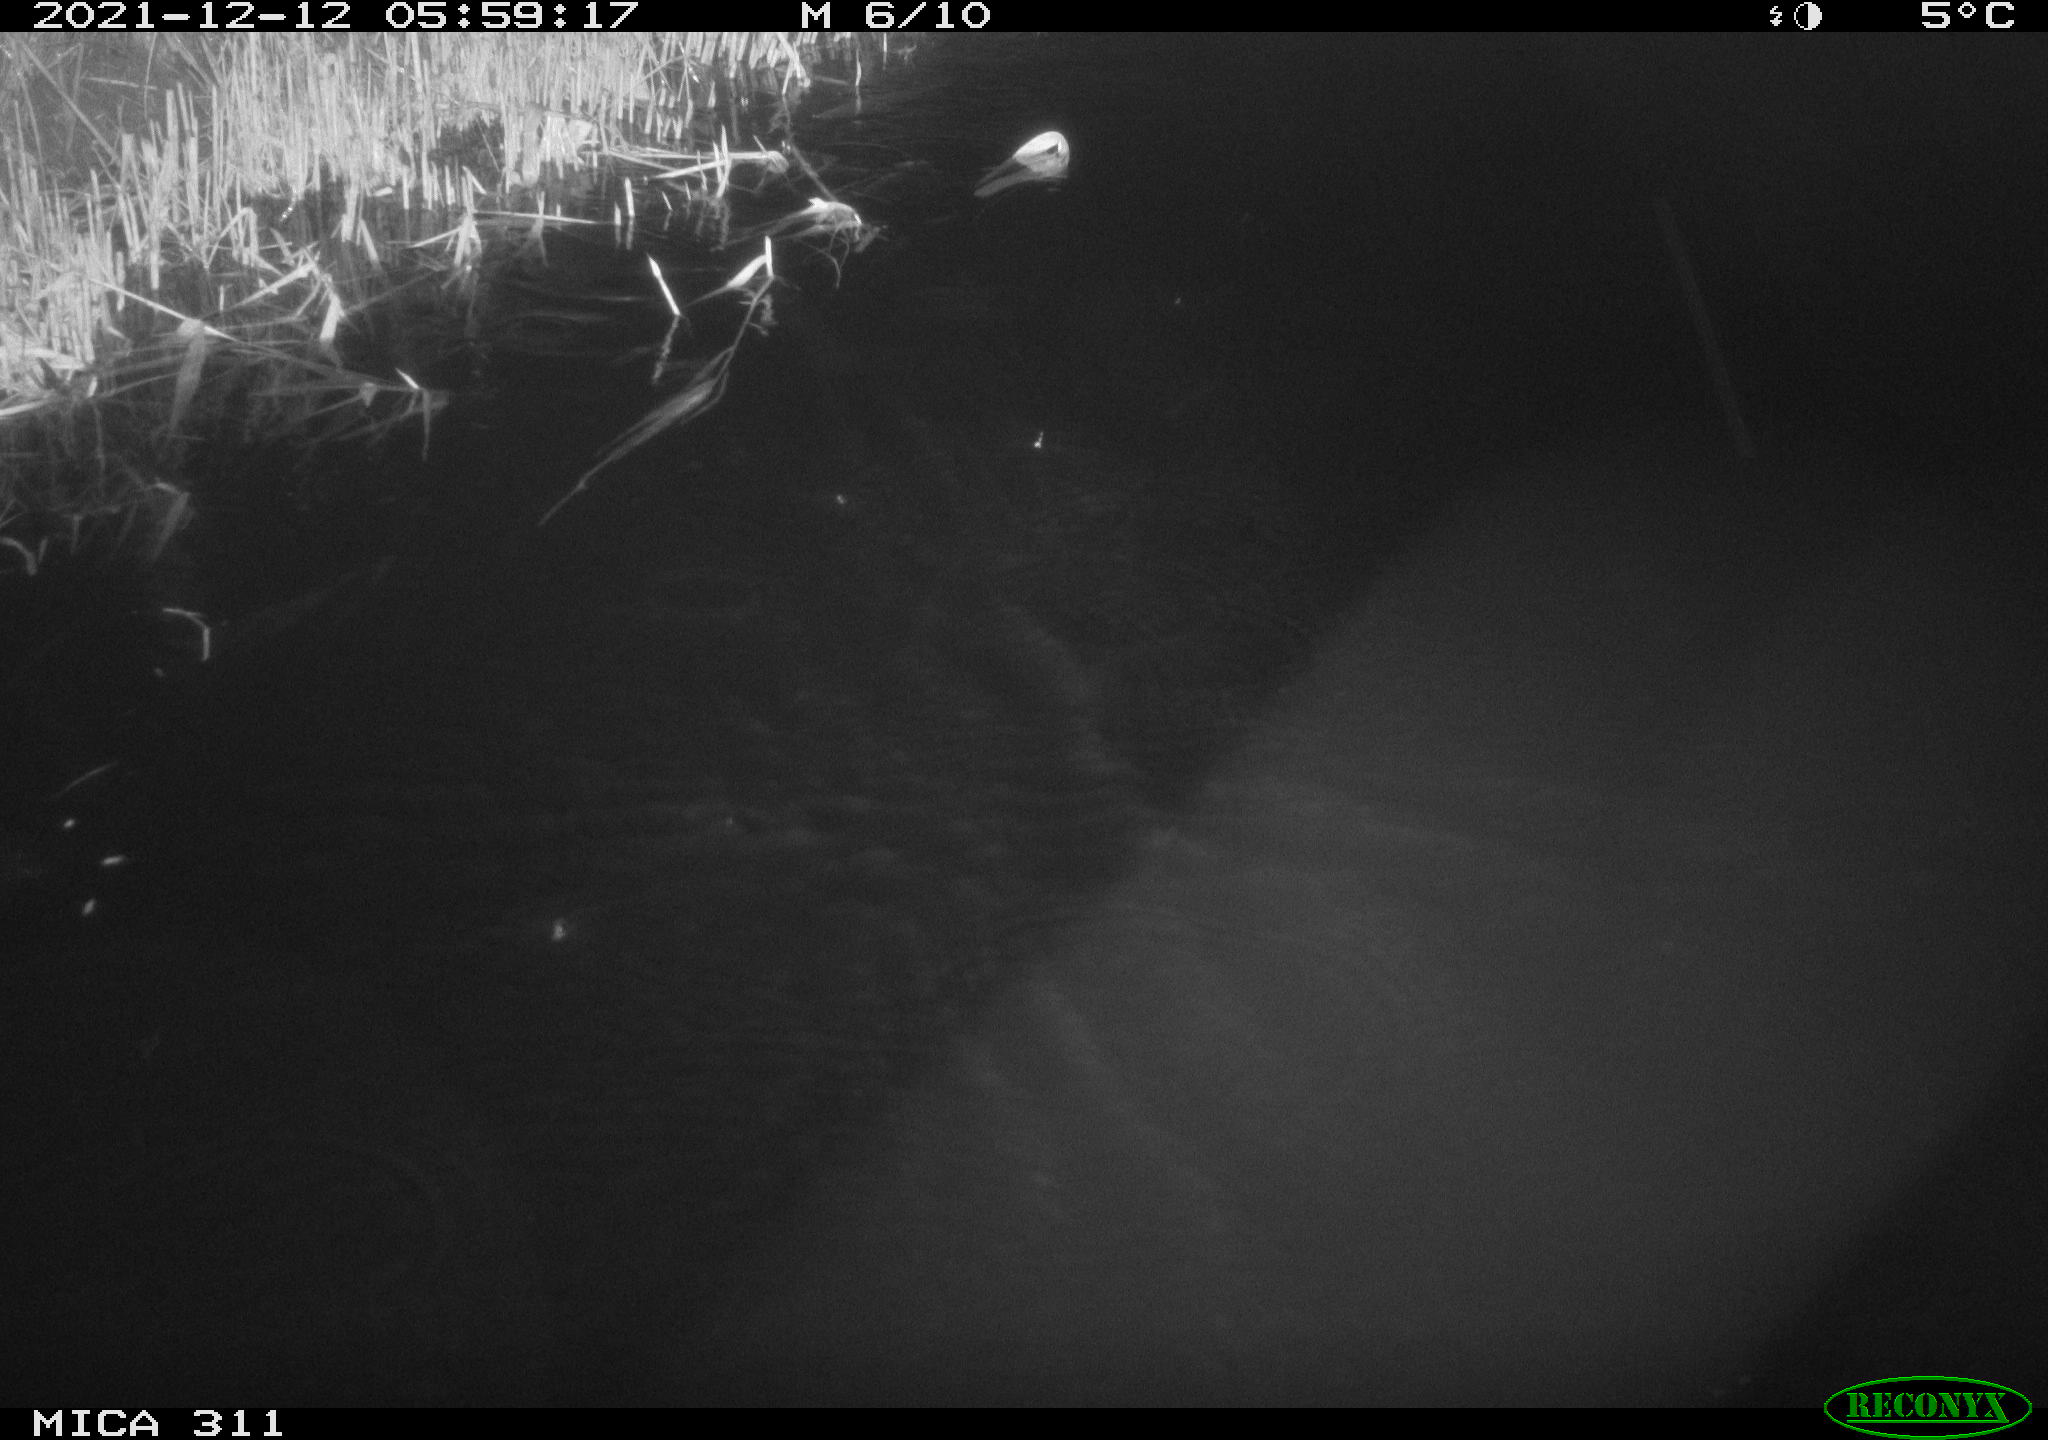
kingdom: Animalia
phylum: Chordata
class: Mammalia
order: Rodentia
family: Muridae
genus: Rattus
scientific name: Rattus norvegicus
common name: Brown rat
